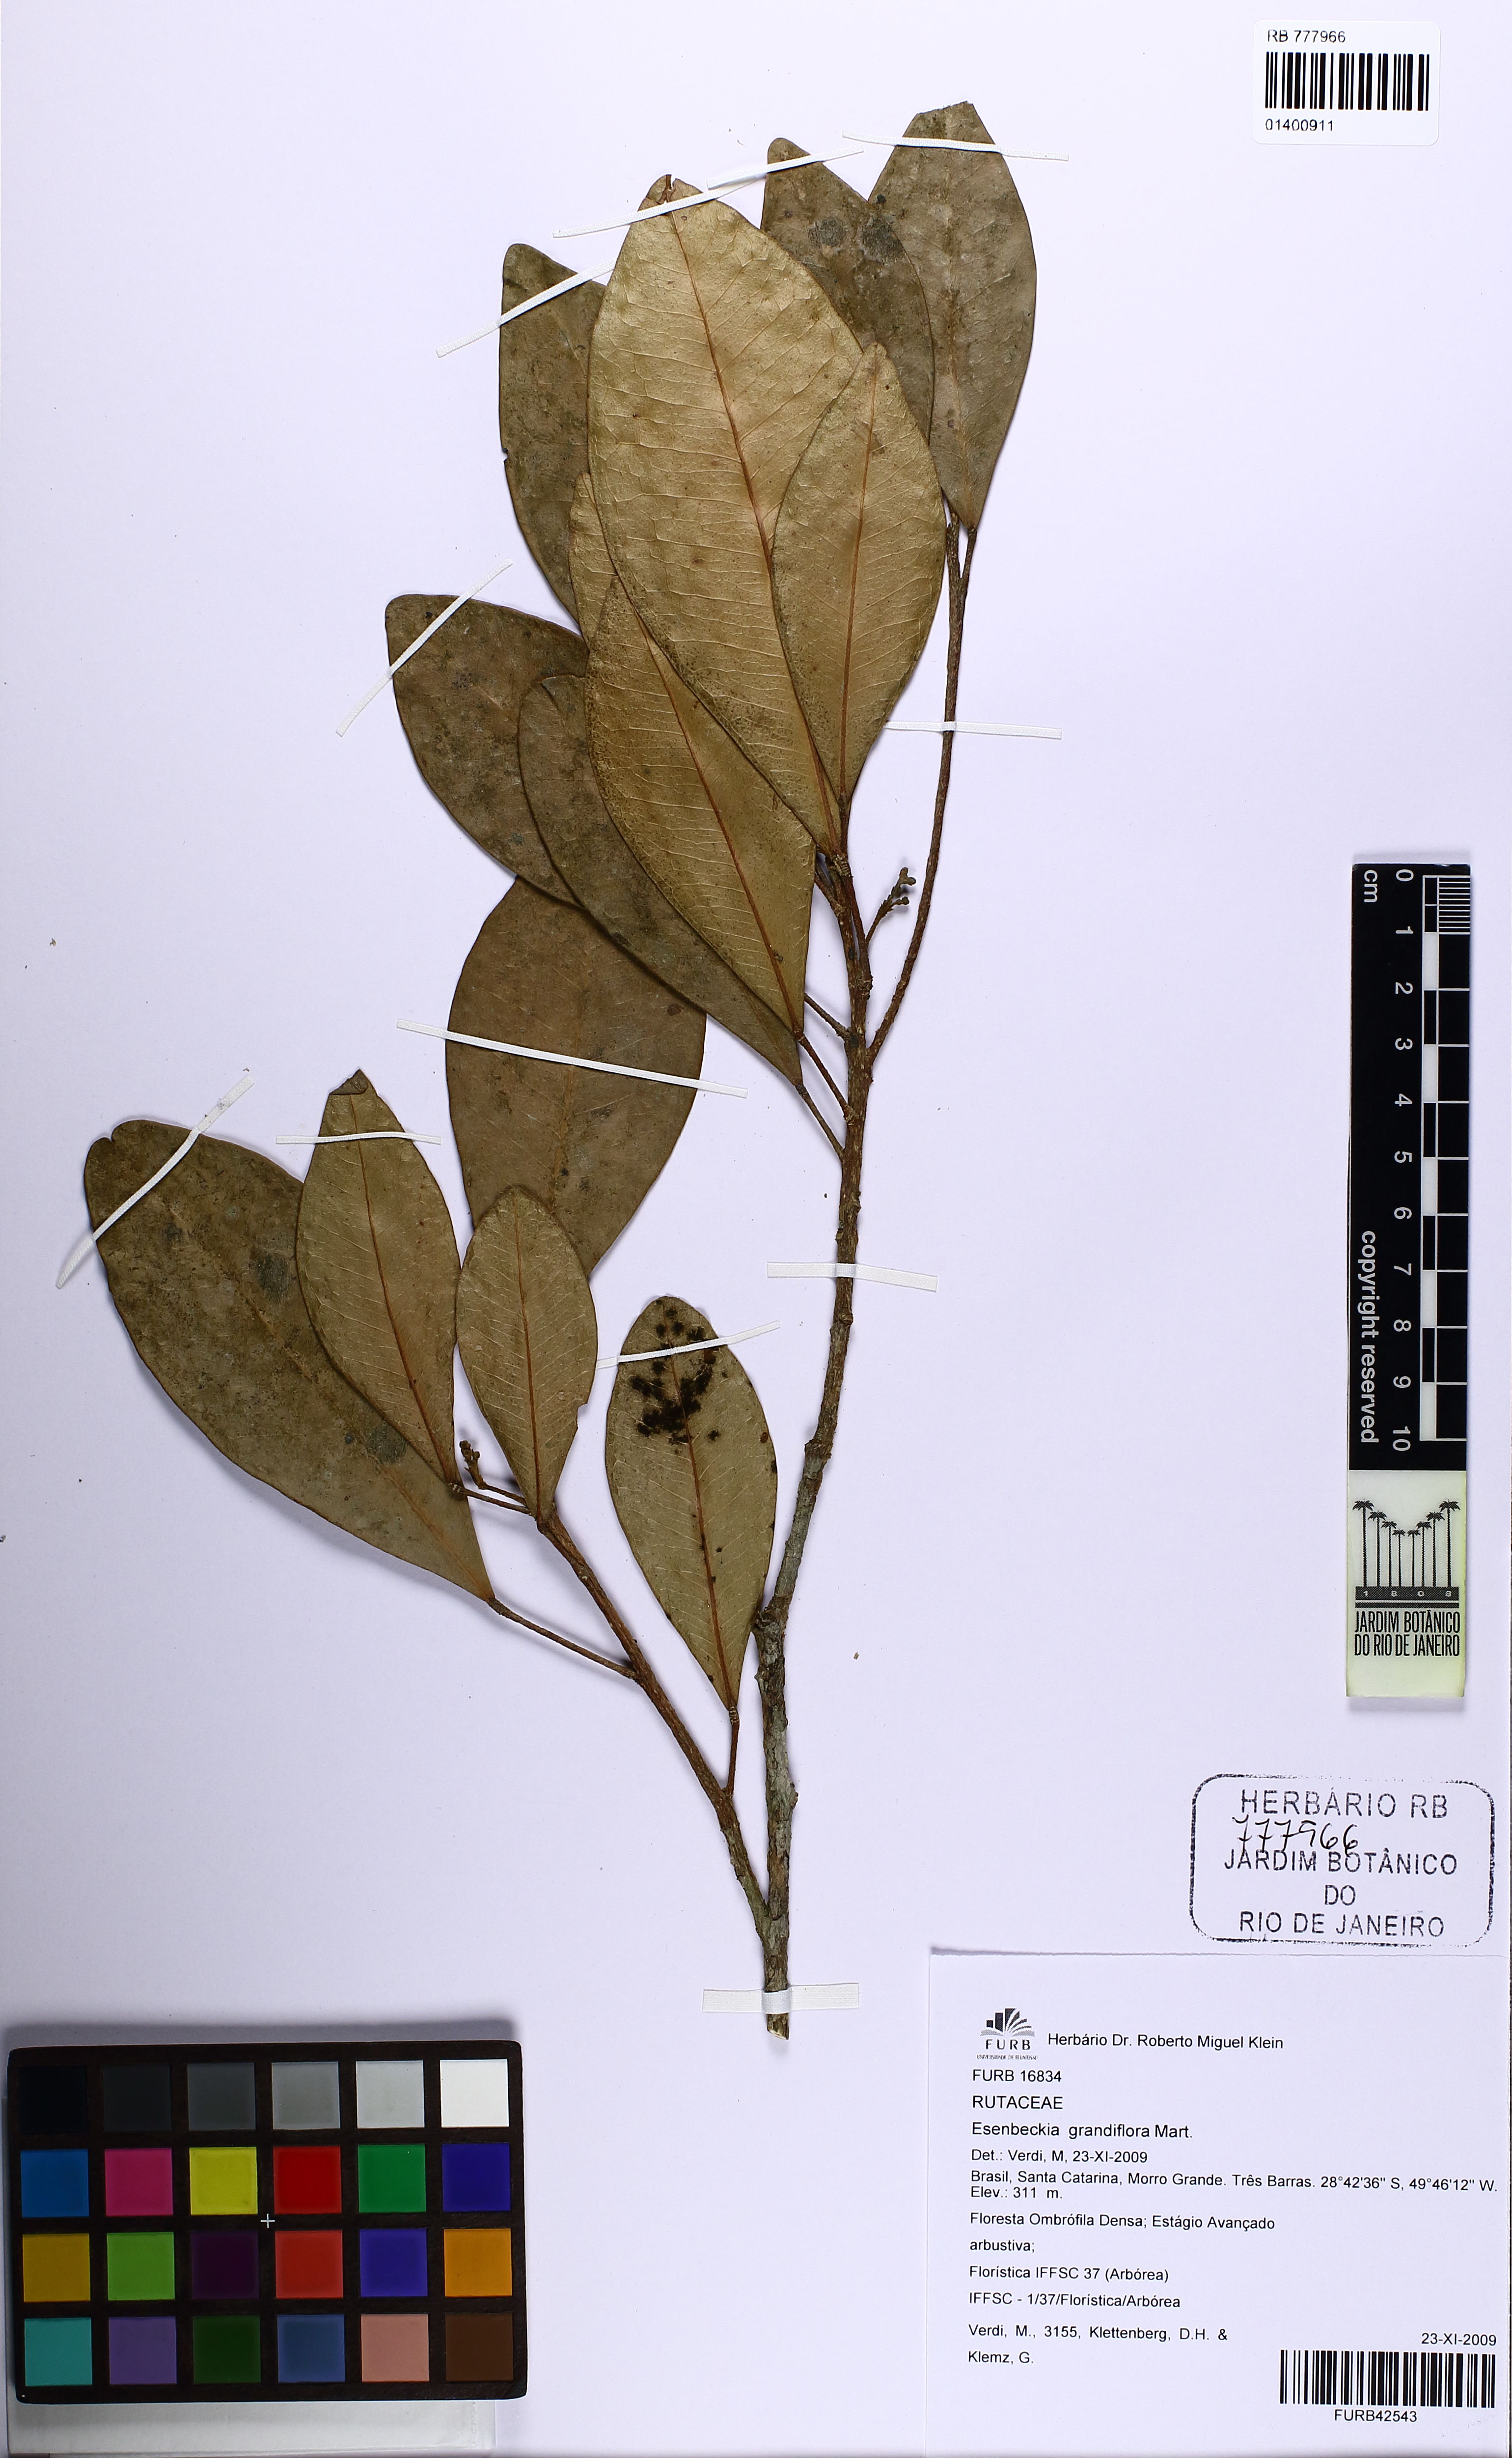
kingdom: Plantae
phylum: Tracheophyta
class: Magnoliopsida
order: Sapindales
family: Rutaceae
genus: Esenbeckia
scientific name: Esenbeckia grandiflora
